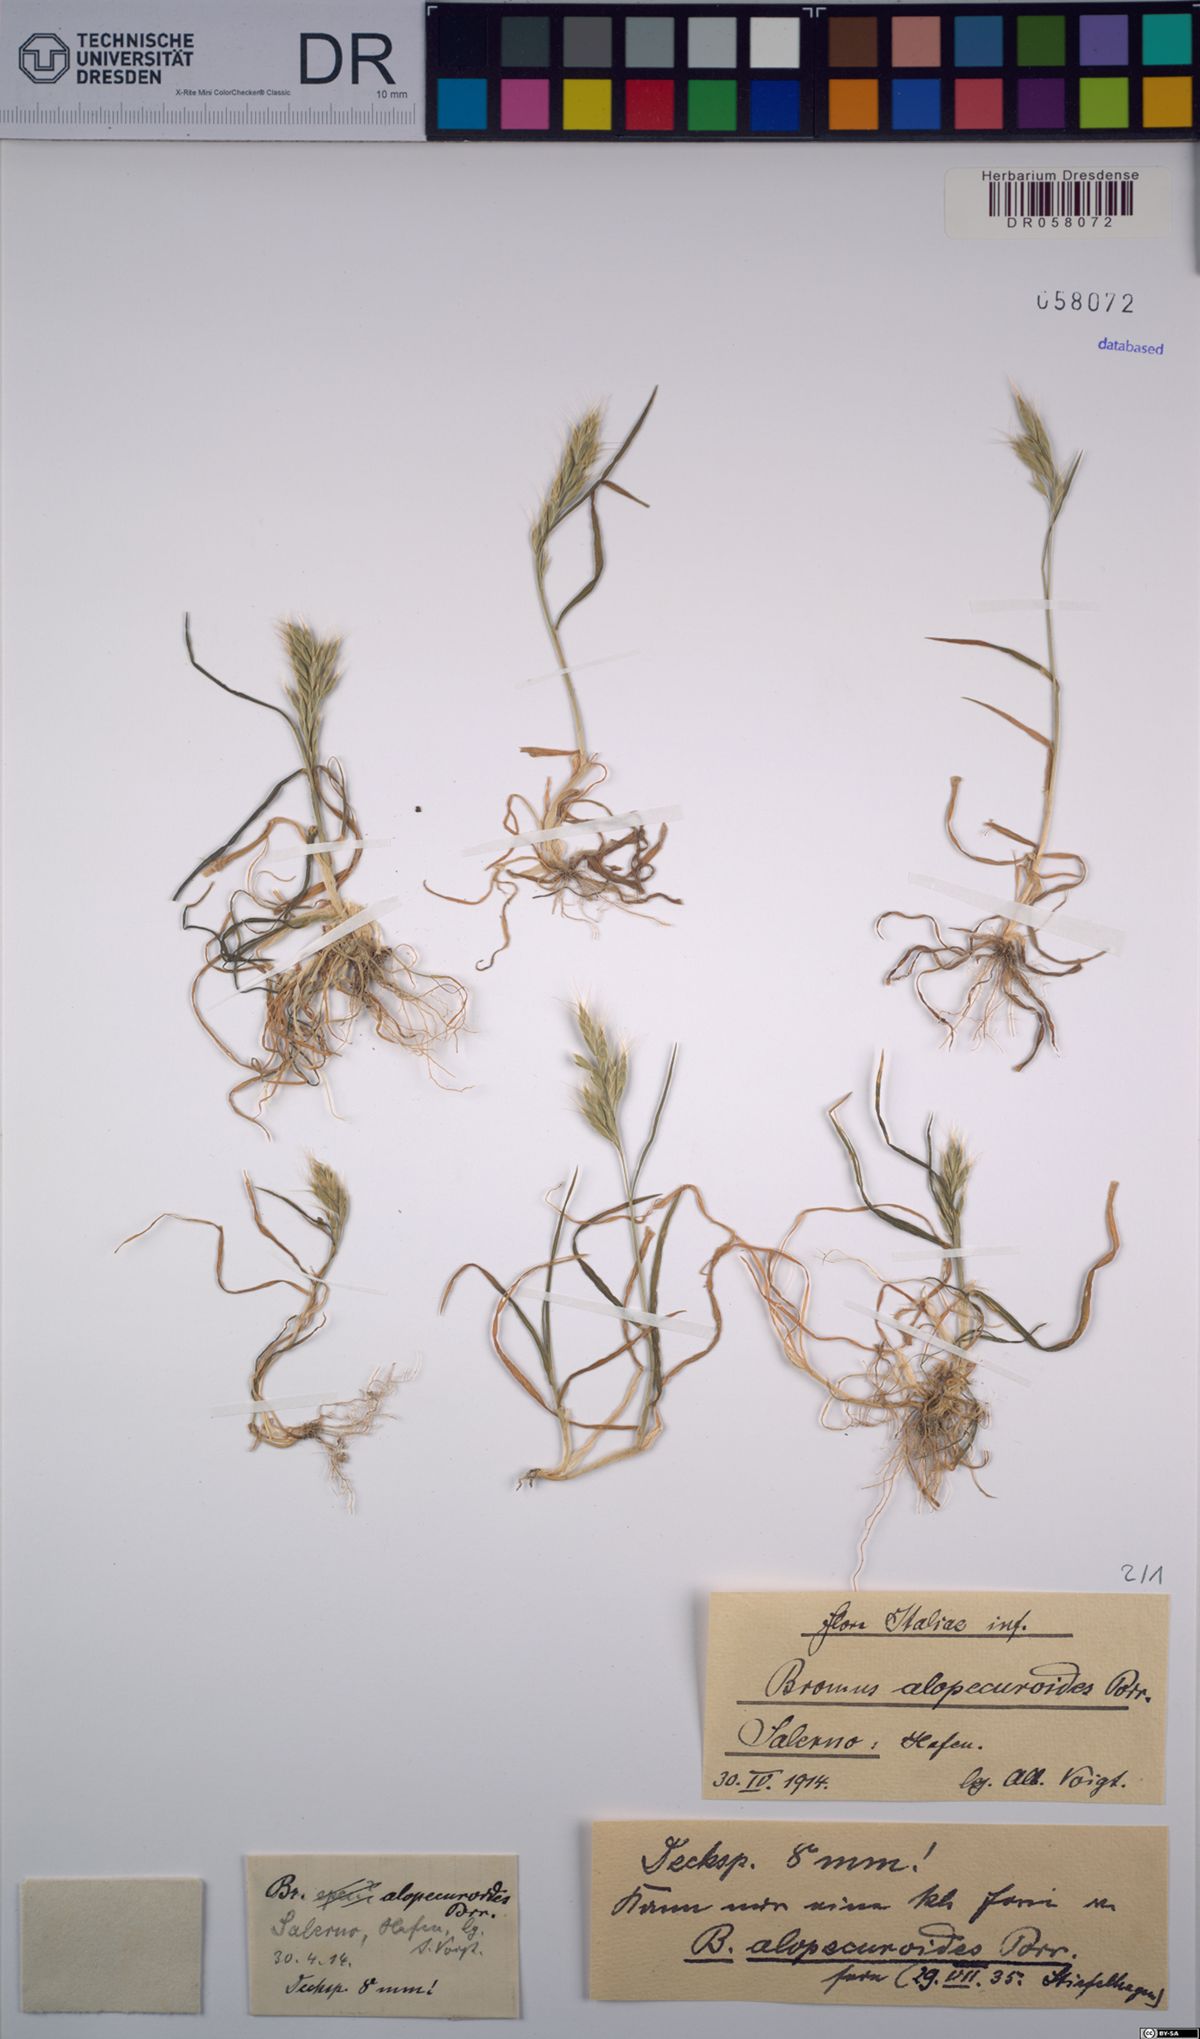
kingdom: Plantae
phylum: Tracheophyta
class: Liliopsida
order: Poales
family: Poaceae
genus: Bromus
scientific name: Bromus alopecuros
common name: Weedy brome
